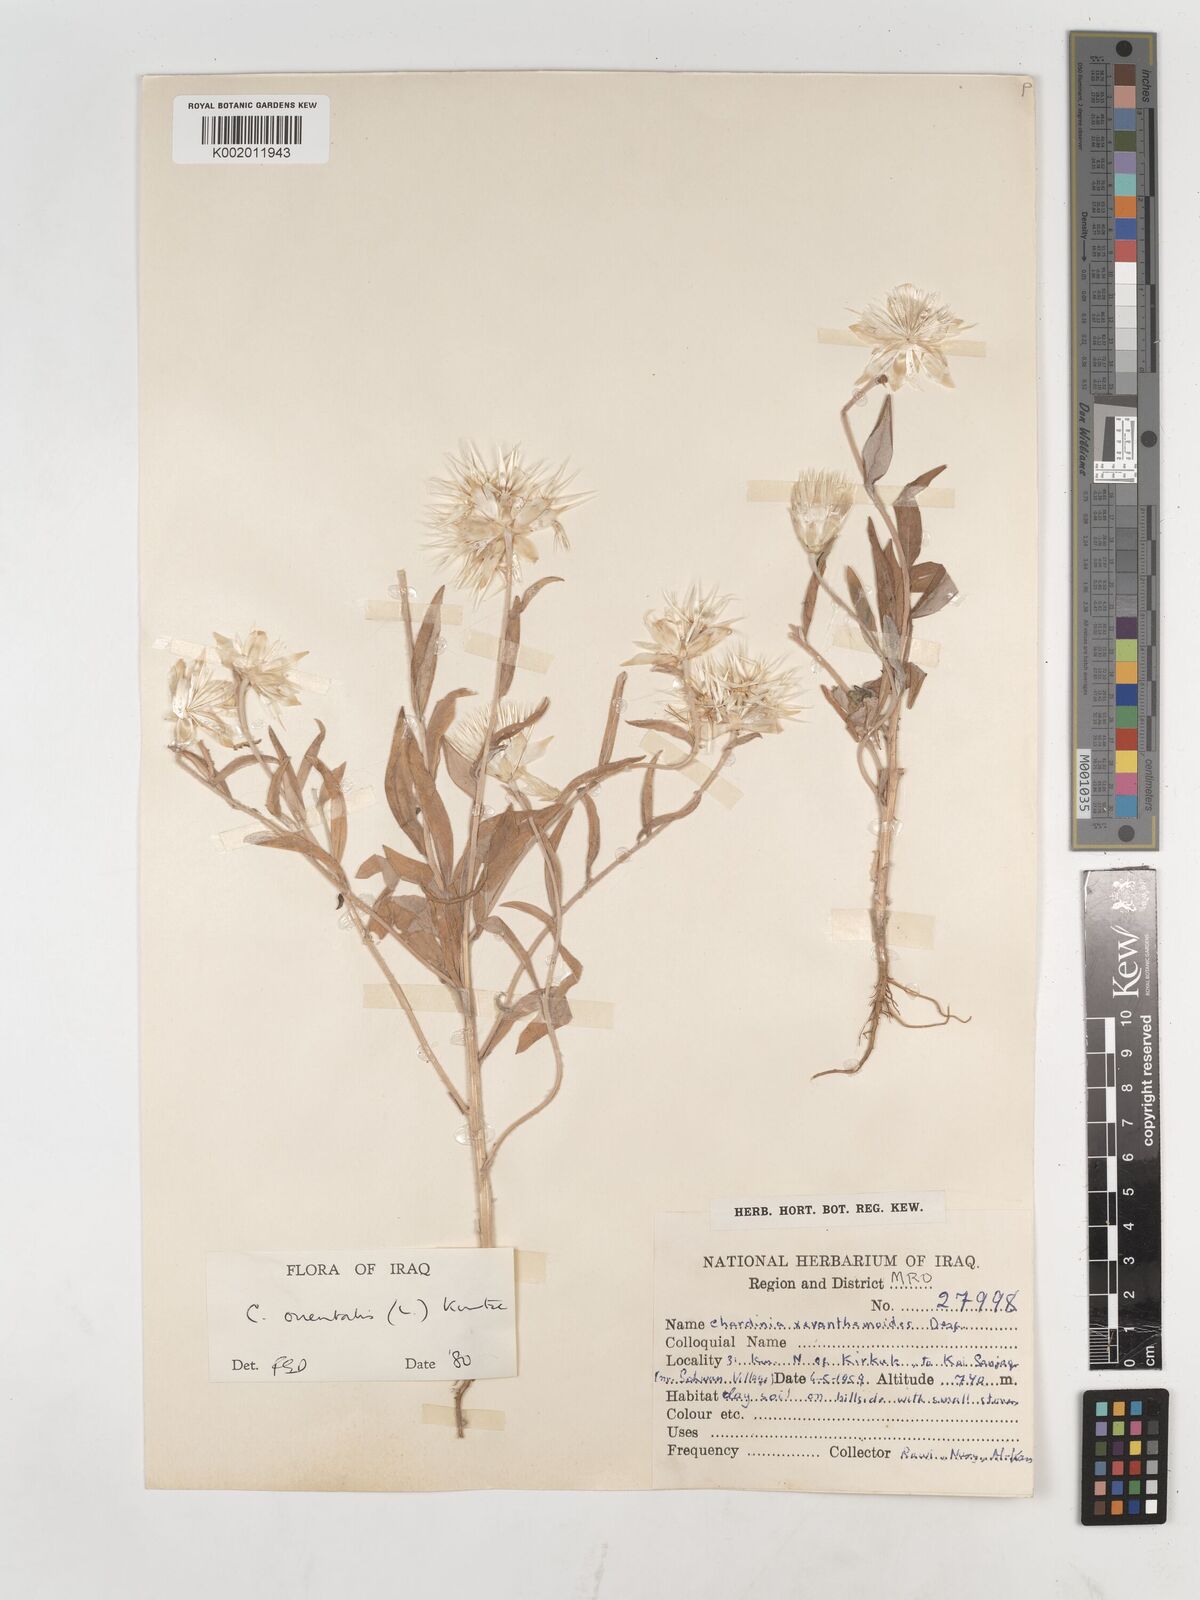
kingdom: Plantae
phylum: Tracheophyta
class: Magnoliopsida
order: Asterales
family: Asteraceae
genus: Chardinia
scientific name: Chardinia orientalis
